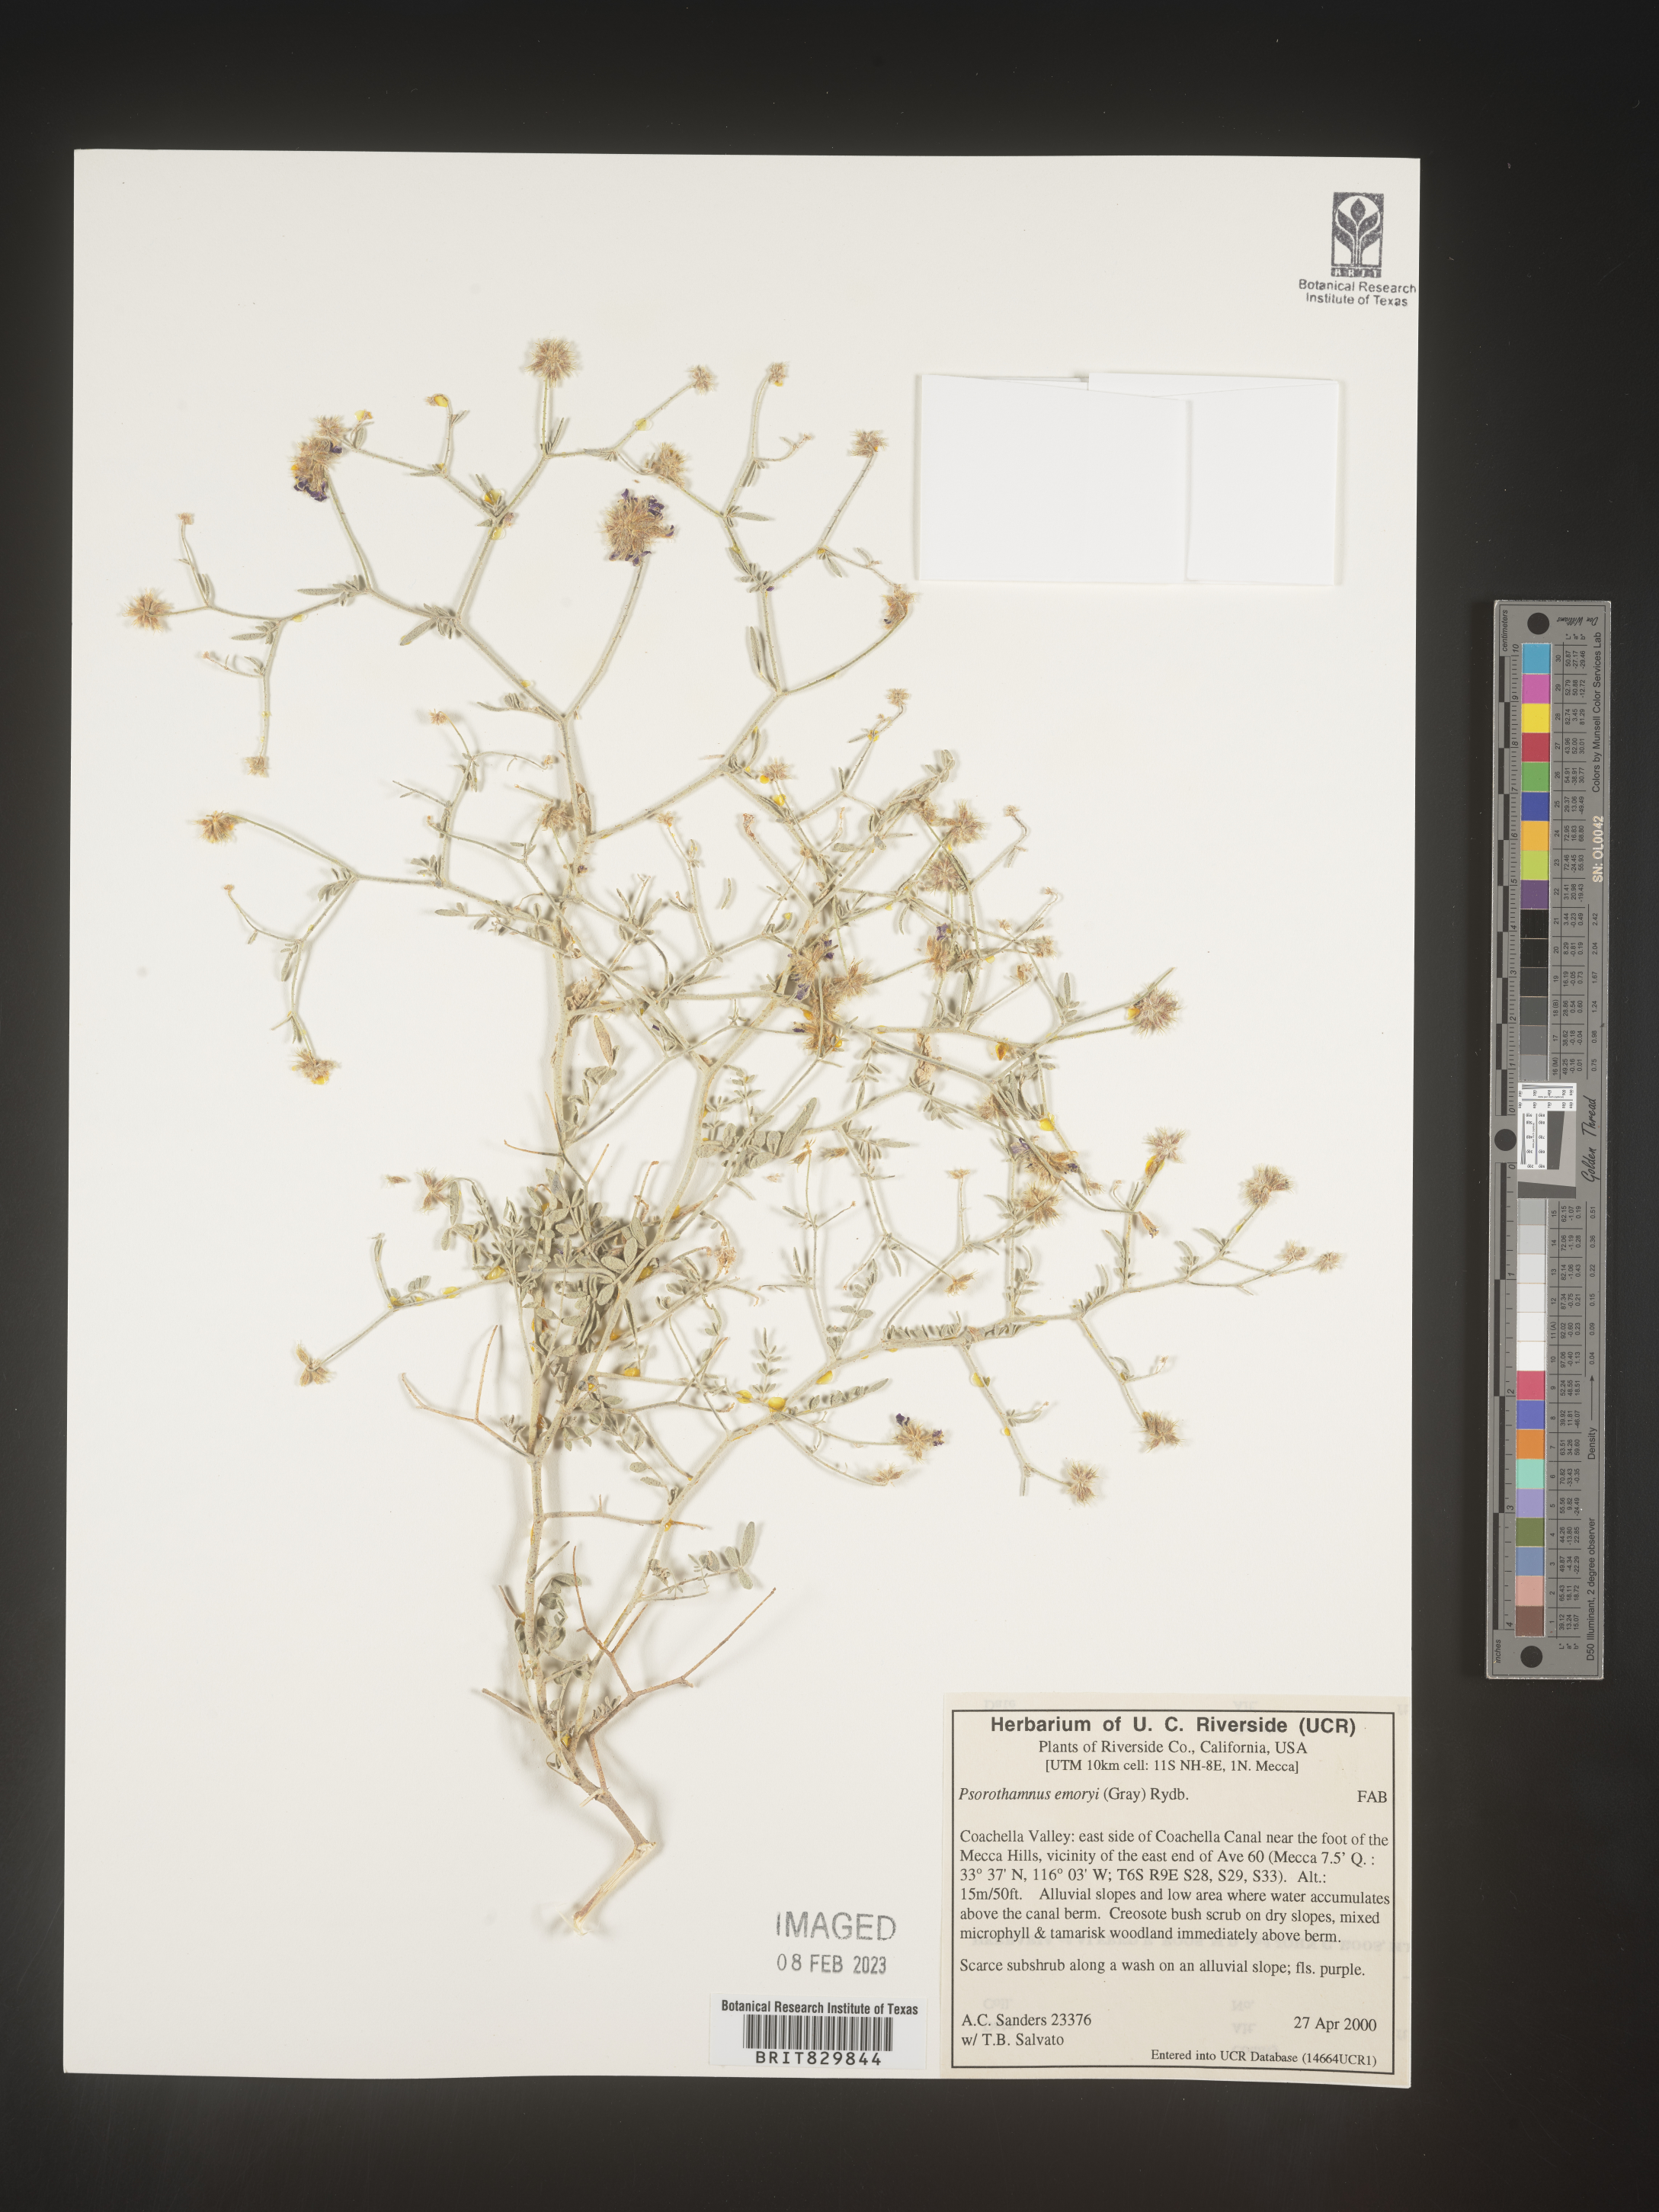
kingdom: Plantae
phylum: Tracheophyta
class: Magnoliopsida
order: Fabales
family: Fabaceae
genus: Psorothamnus
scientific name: Psorothamnus
